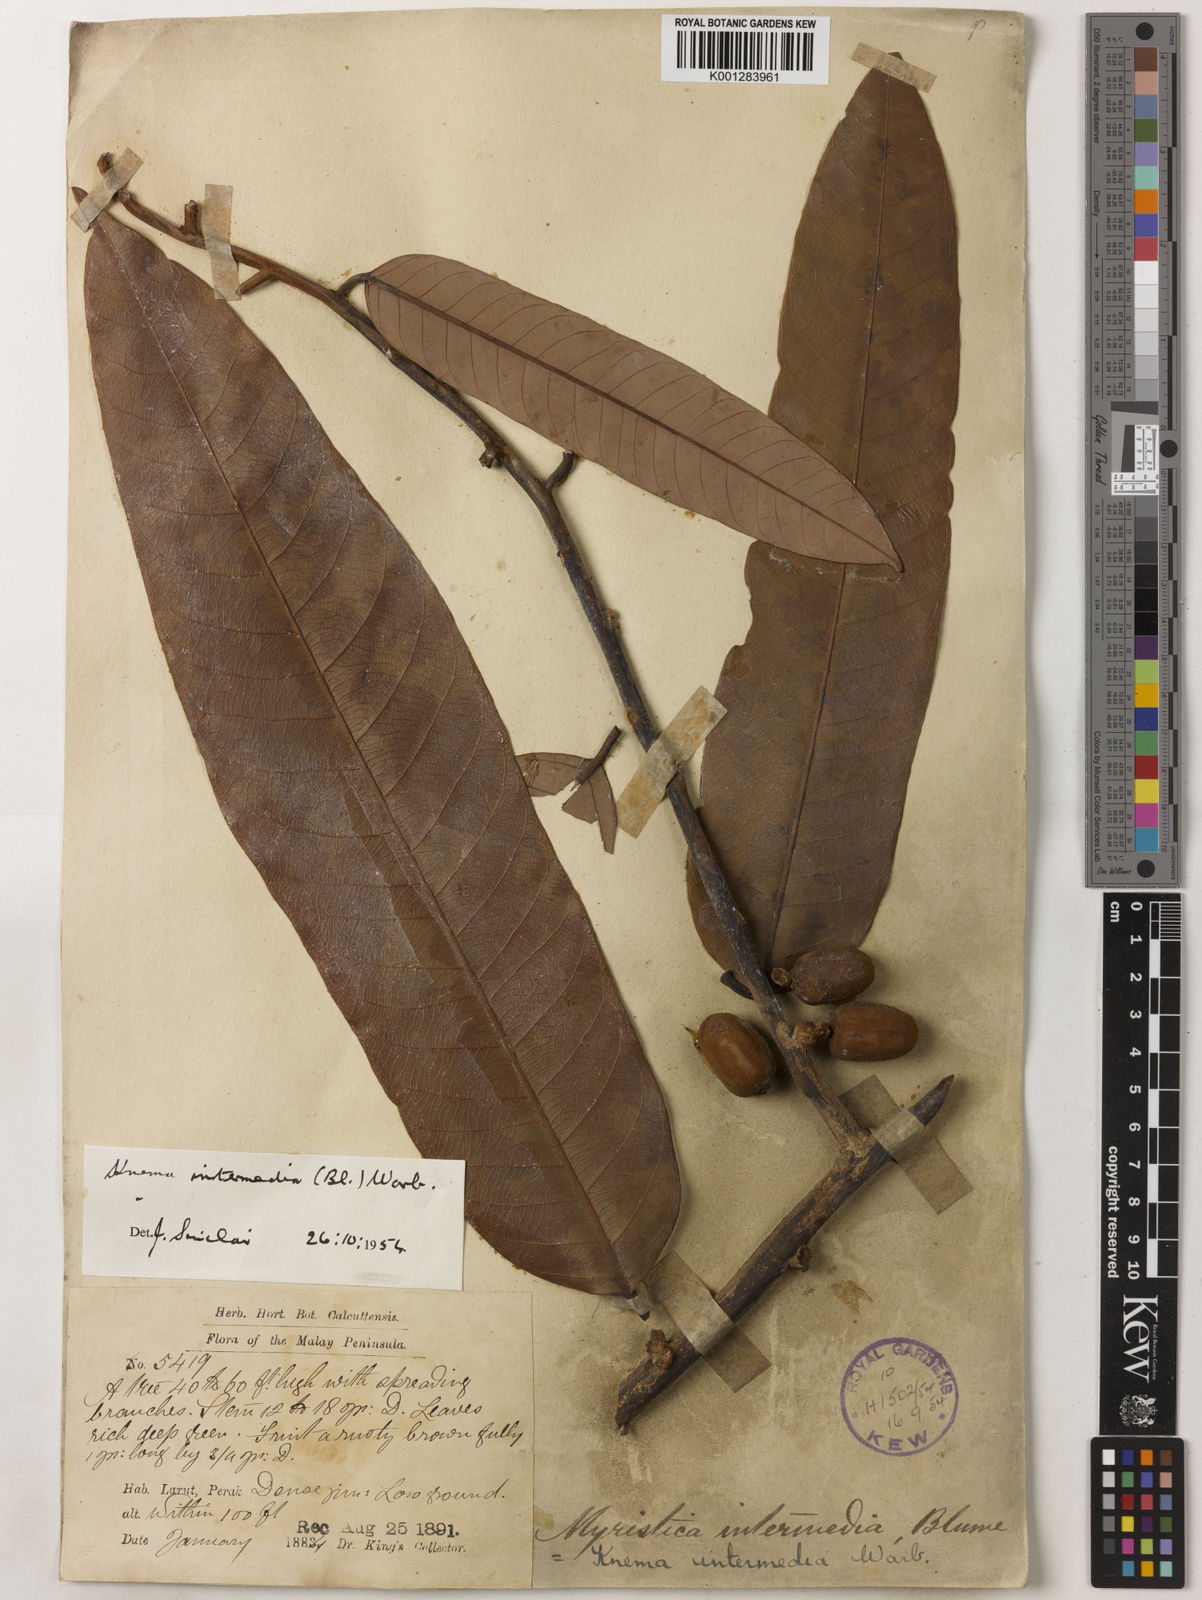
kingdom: Plantae
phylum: Tracheophyta
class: Magnoliopsida
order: Magnoliales
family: Myristicaceae
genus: Knema
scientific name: Knema intermedia
